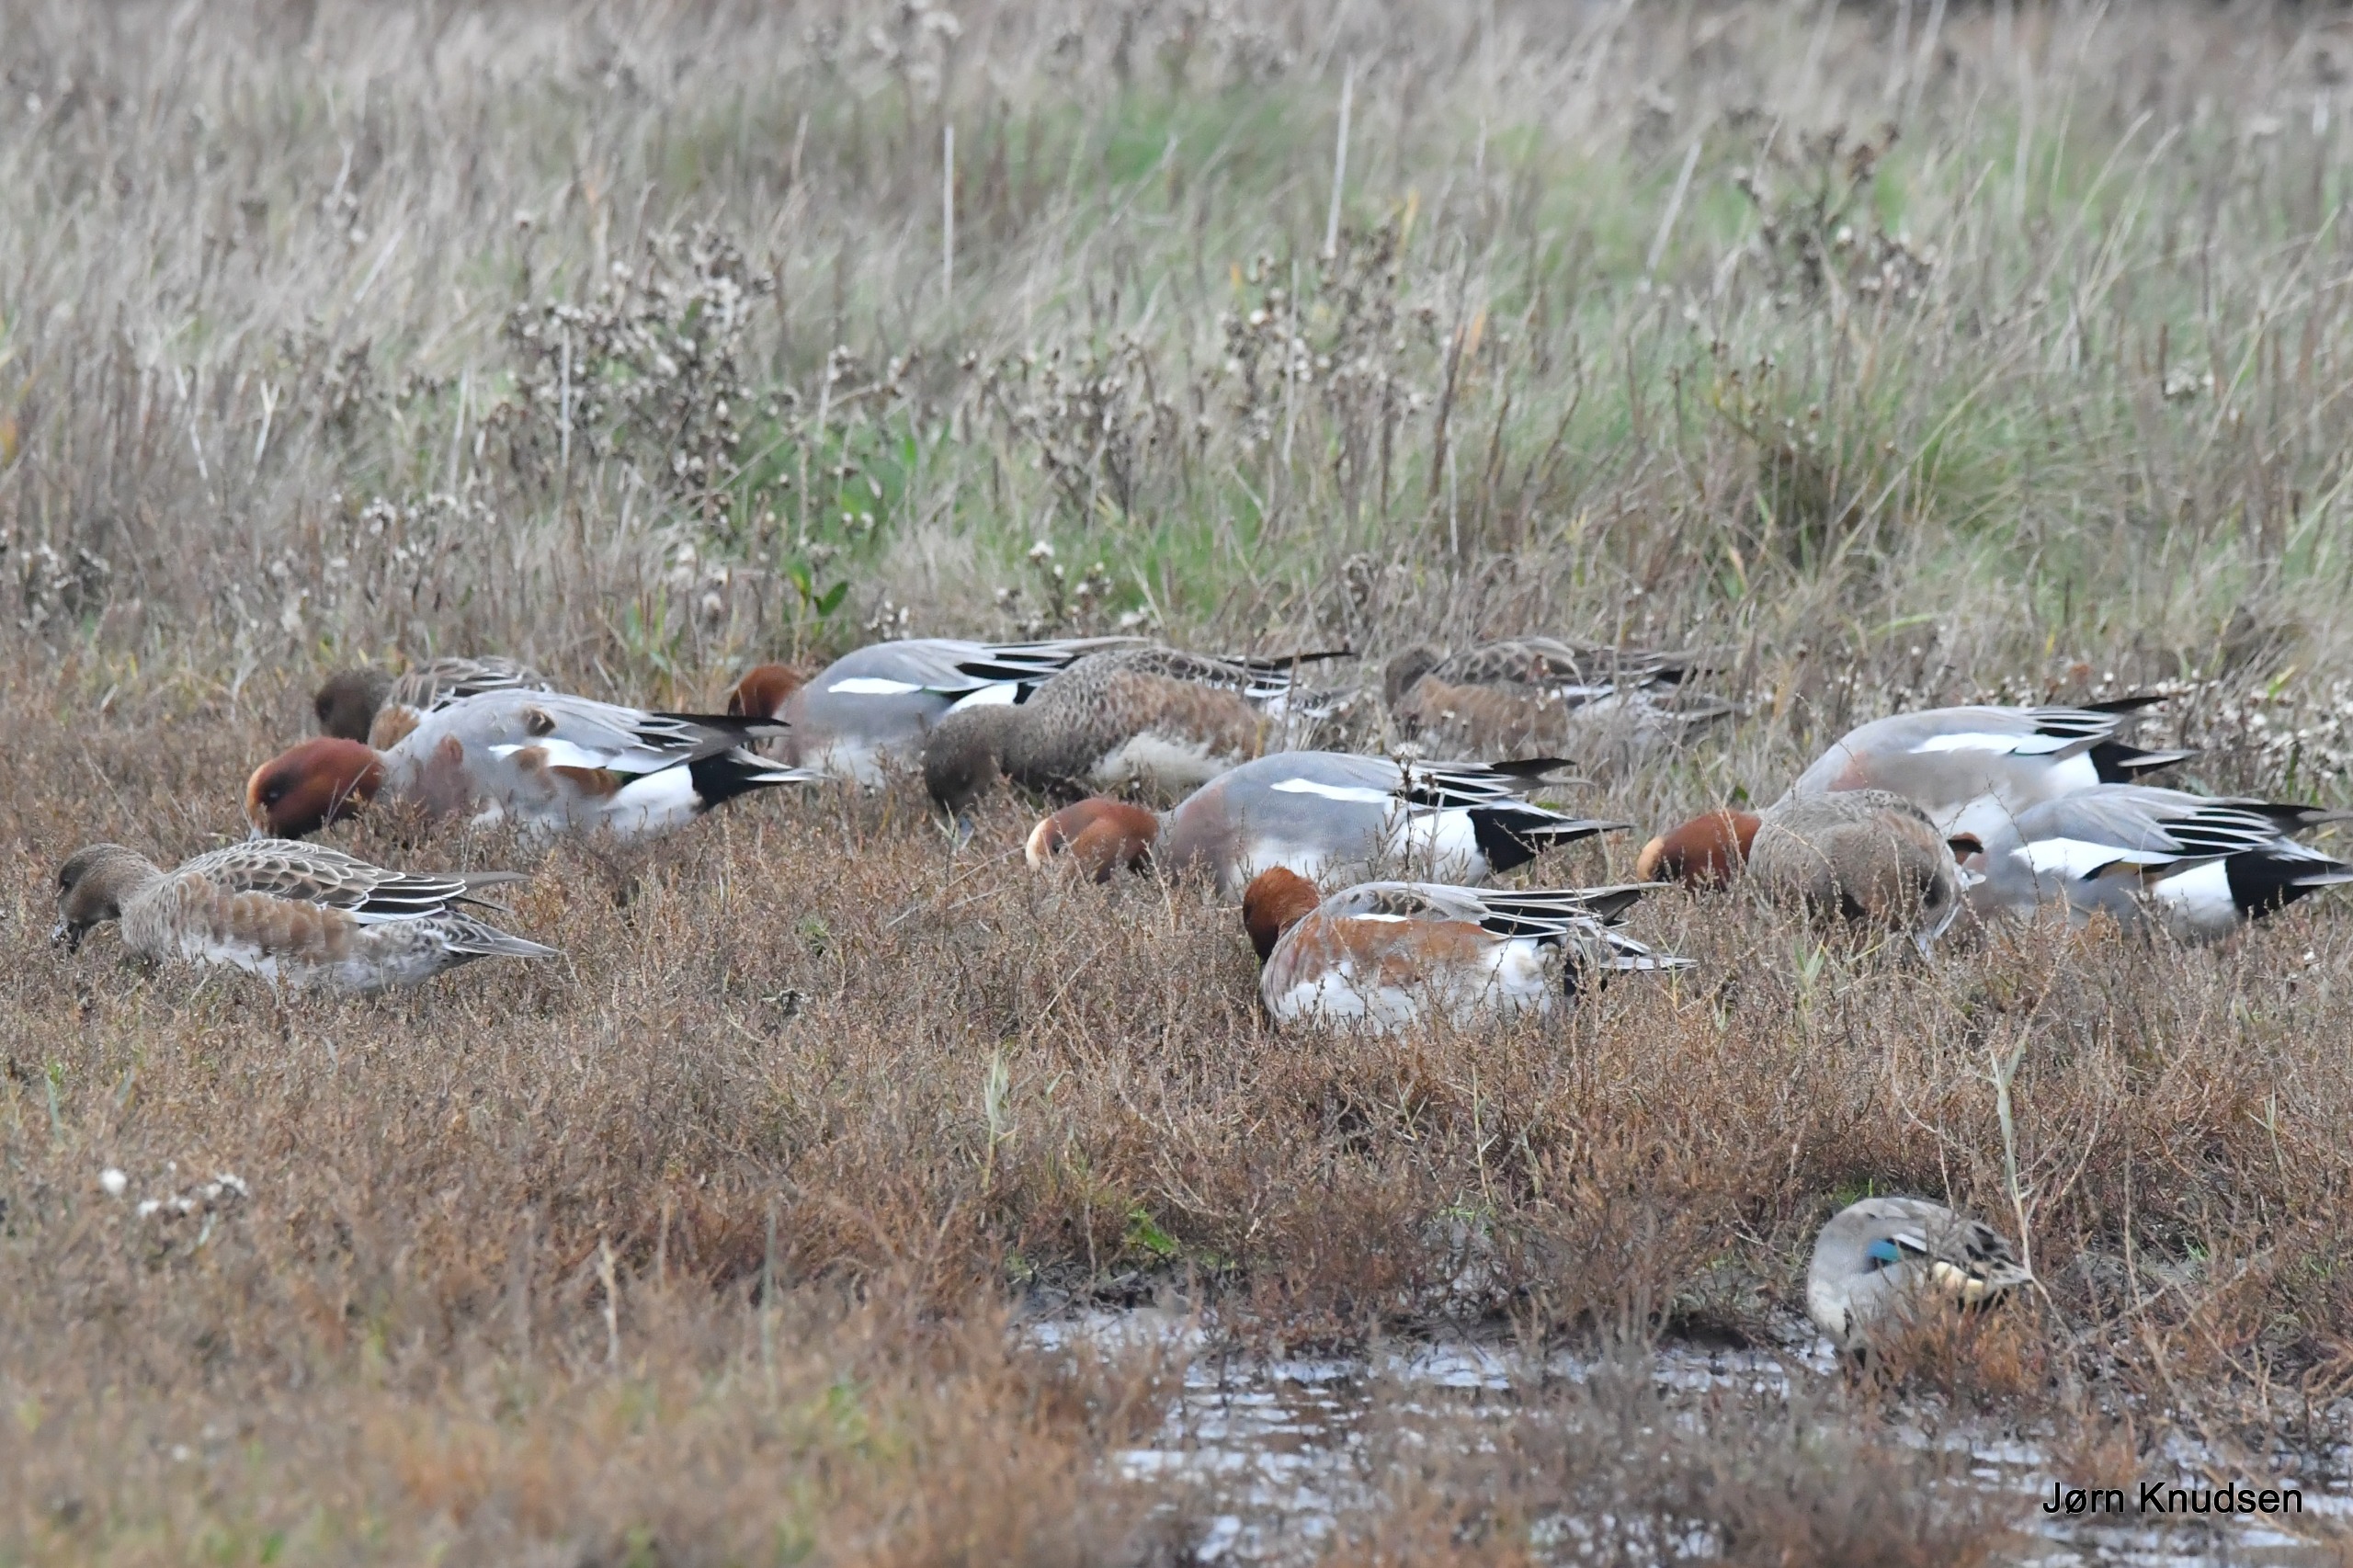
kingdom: Animalia
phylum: Chordata
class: Aves
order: Anseriformes
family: Anatidae
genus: Mareca
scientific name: Mareca penelope
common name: Pibeand
